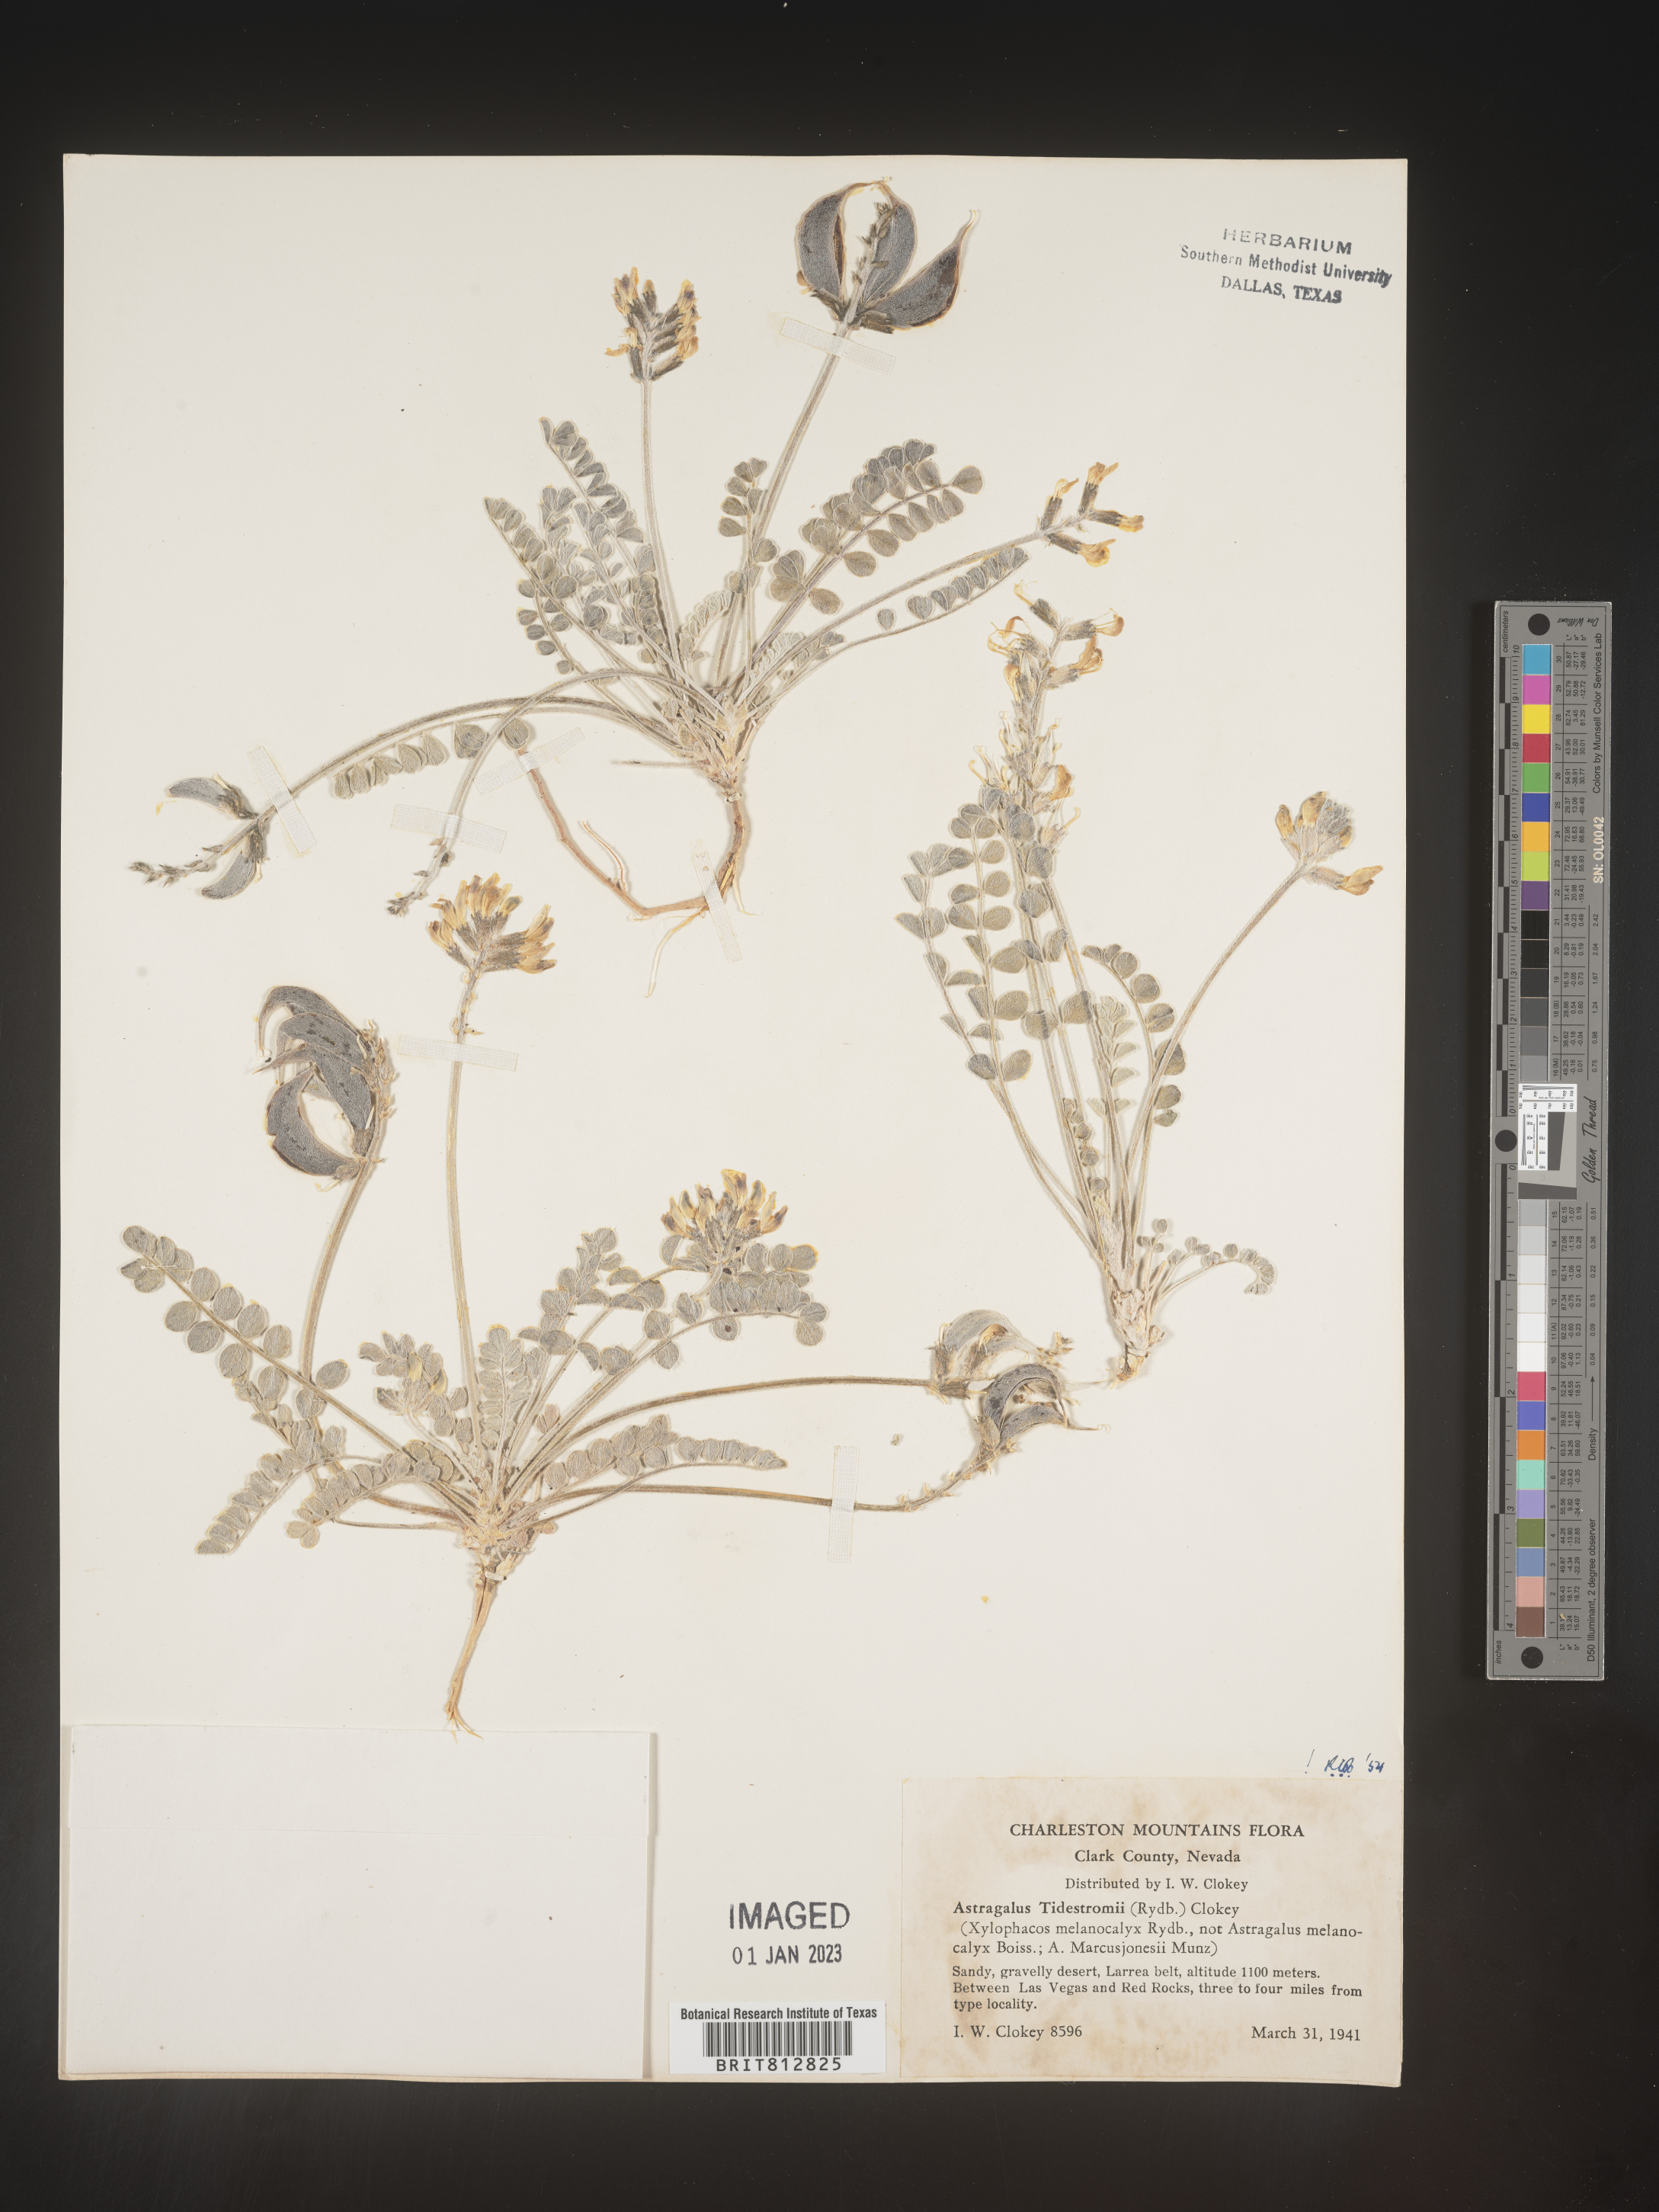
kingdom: Plantae
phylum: Tracheophyta
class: Magnoliopsida
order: Fabales
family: Fabaceae
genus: Astragalus
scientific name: Astragalus
